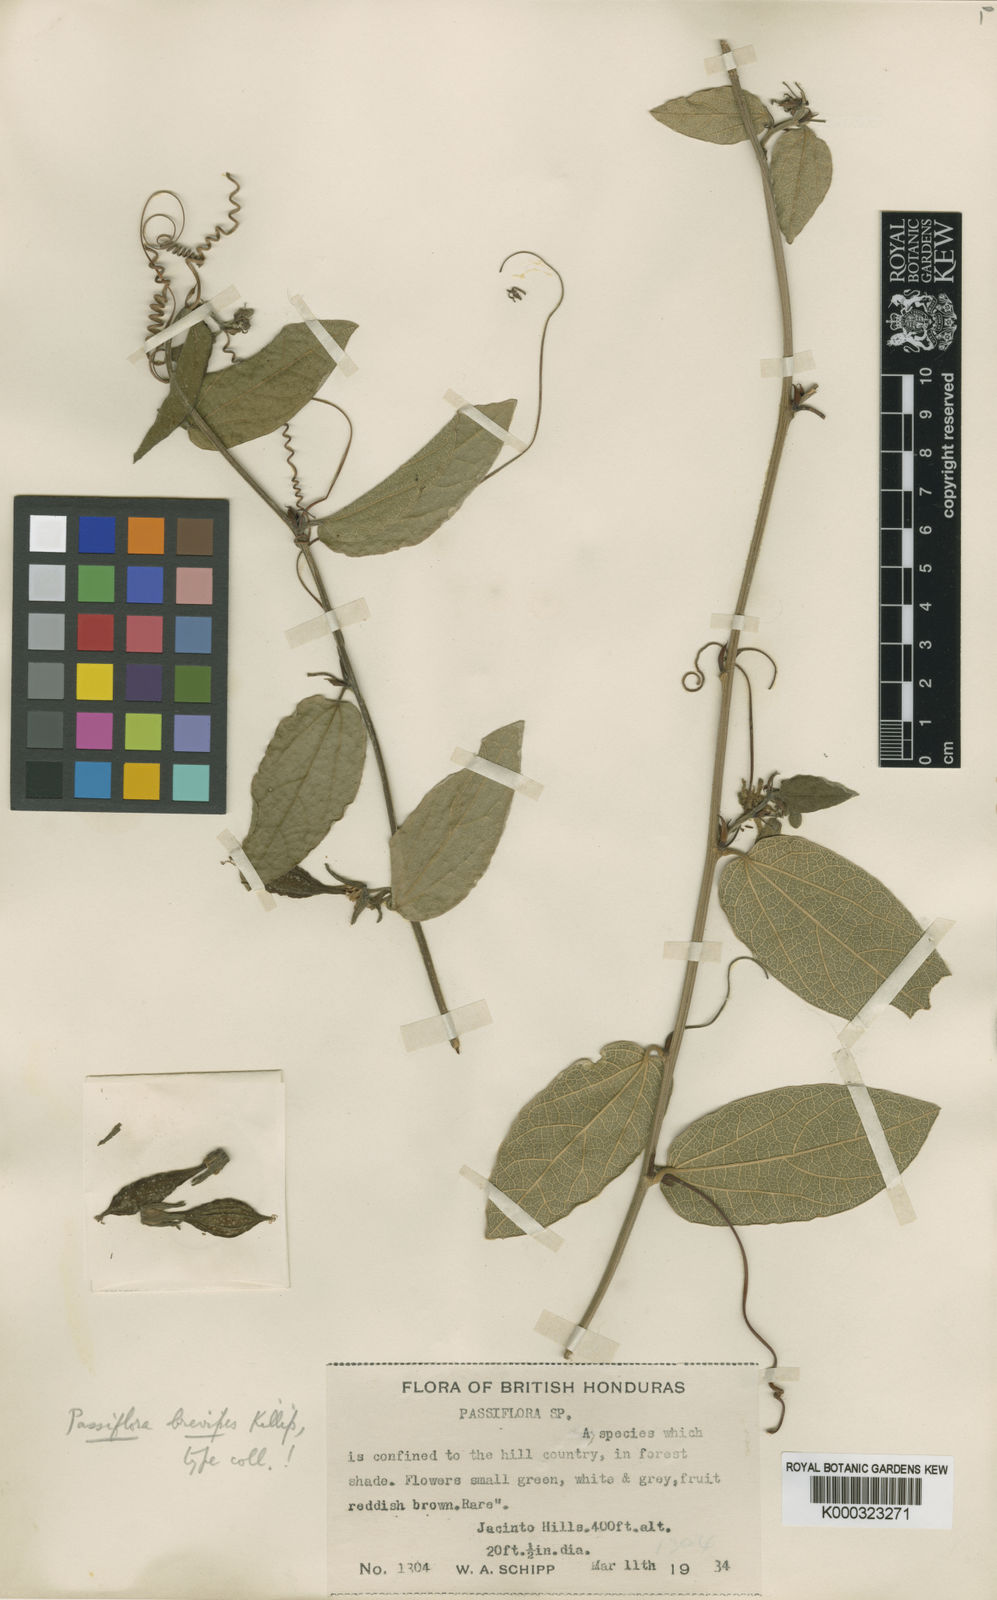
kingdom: Plantae
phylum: Tracheophyta
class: Magnoliopsida
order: Malpighiales
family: Passifloraceae
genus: Passiflora
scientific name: Passiflora
